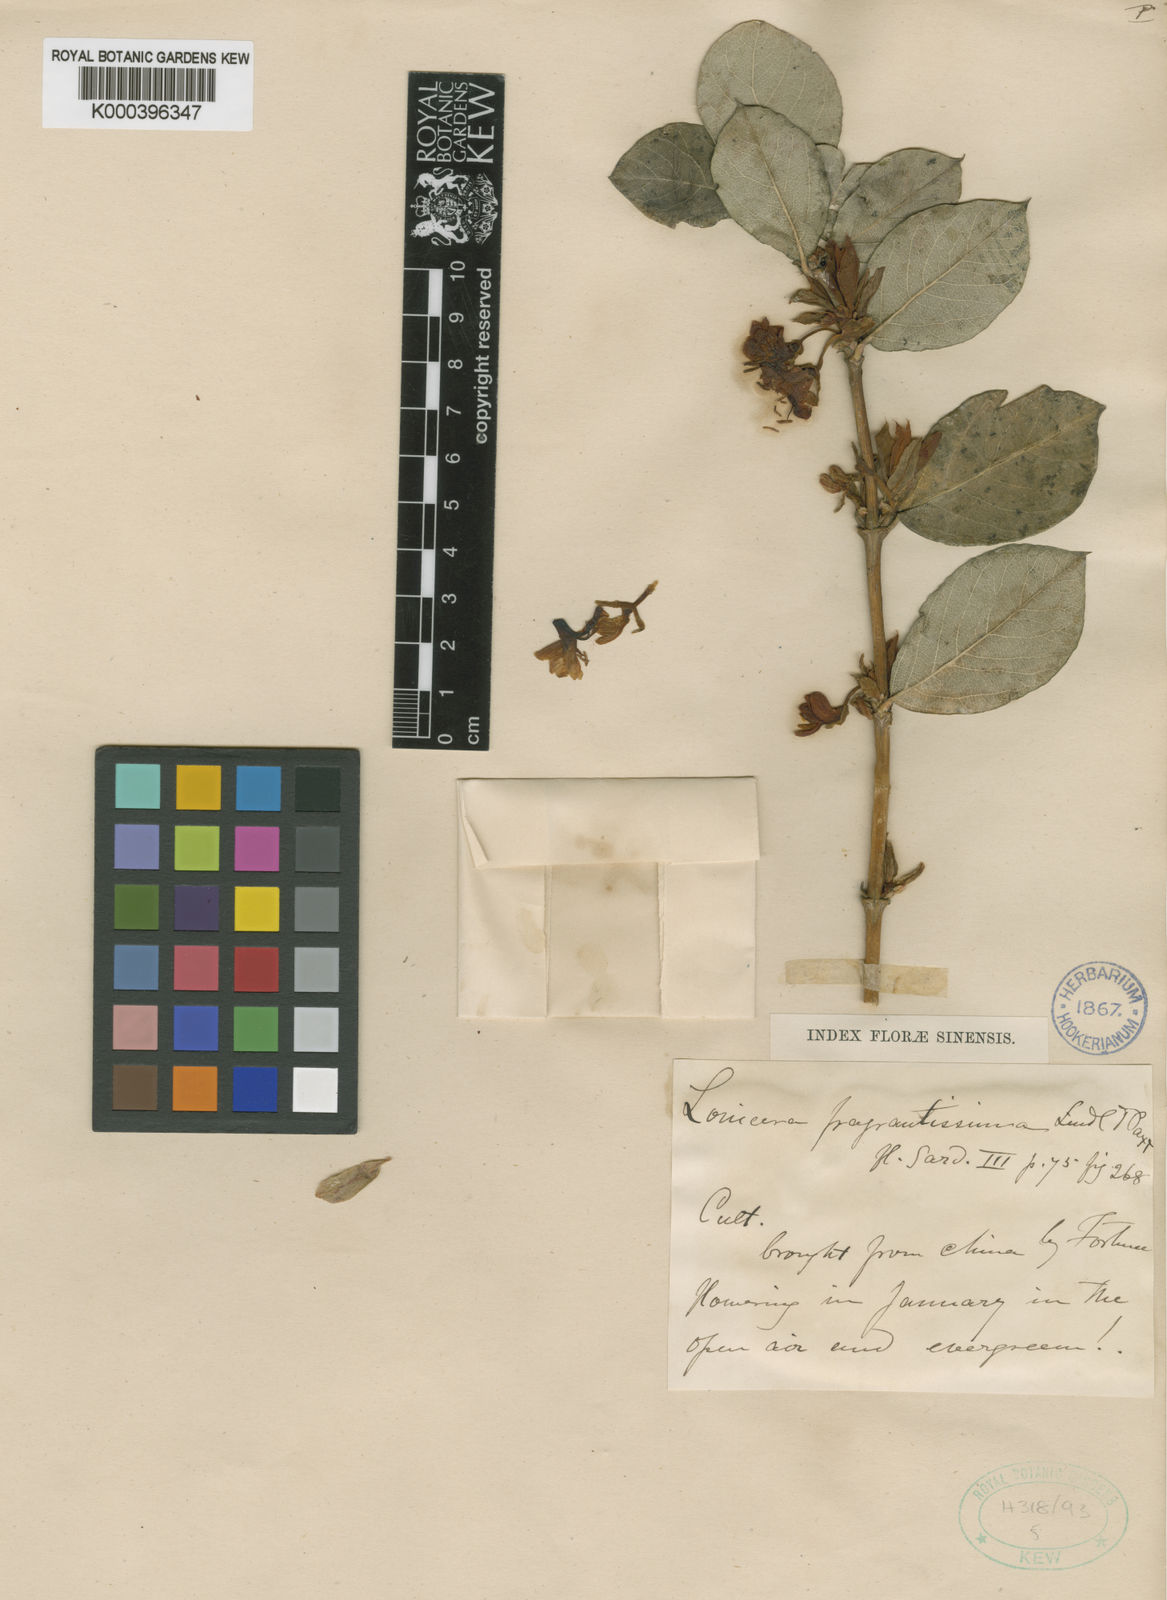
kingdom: Plantae
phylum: Tracheophyta
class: Magnoliopsida
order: Dipsacales
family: Caprifoliaceae
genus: Lonicera
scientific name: Lonicera fragrantissima
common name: Fragrant honeysuckle
